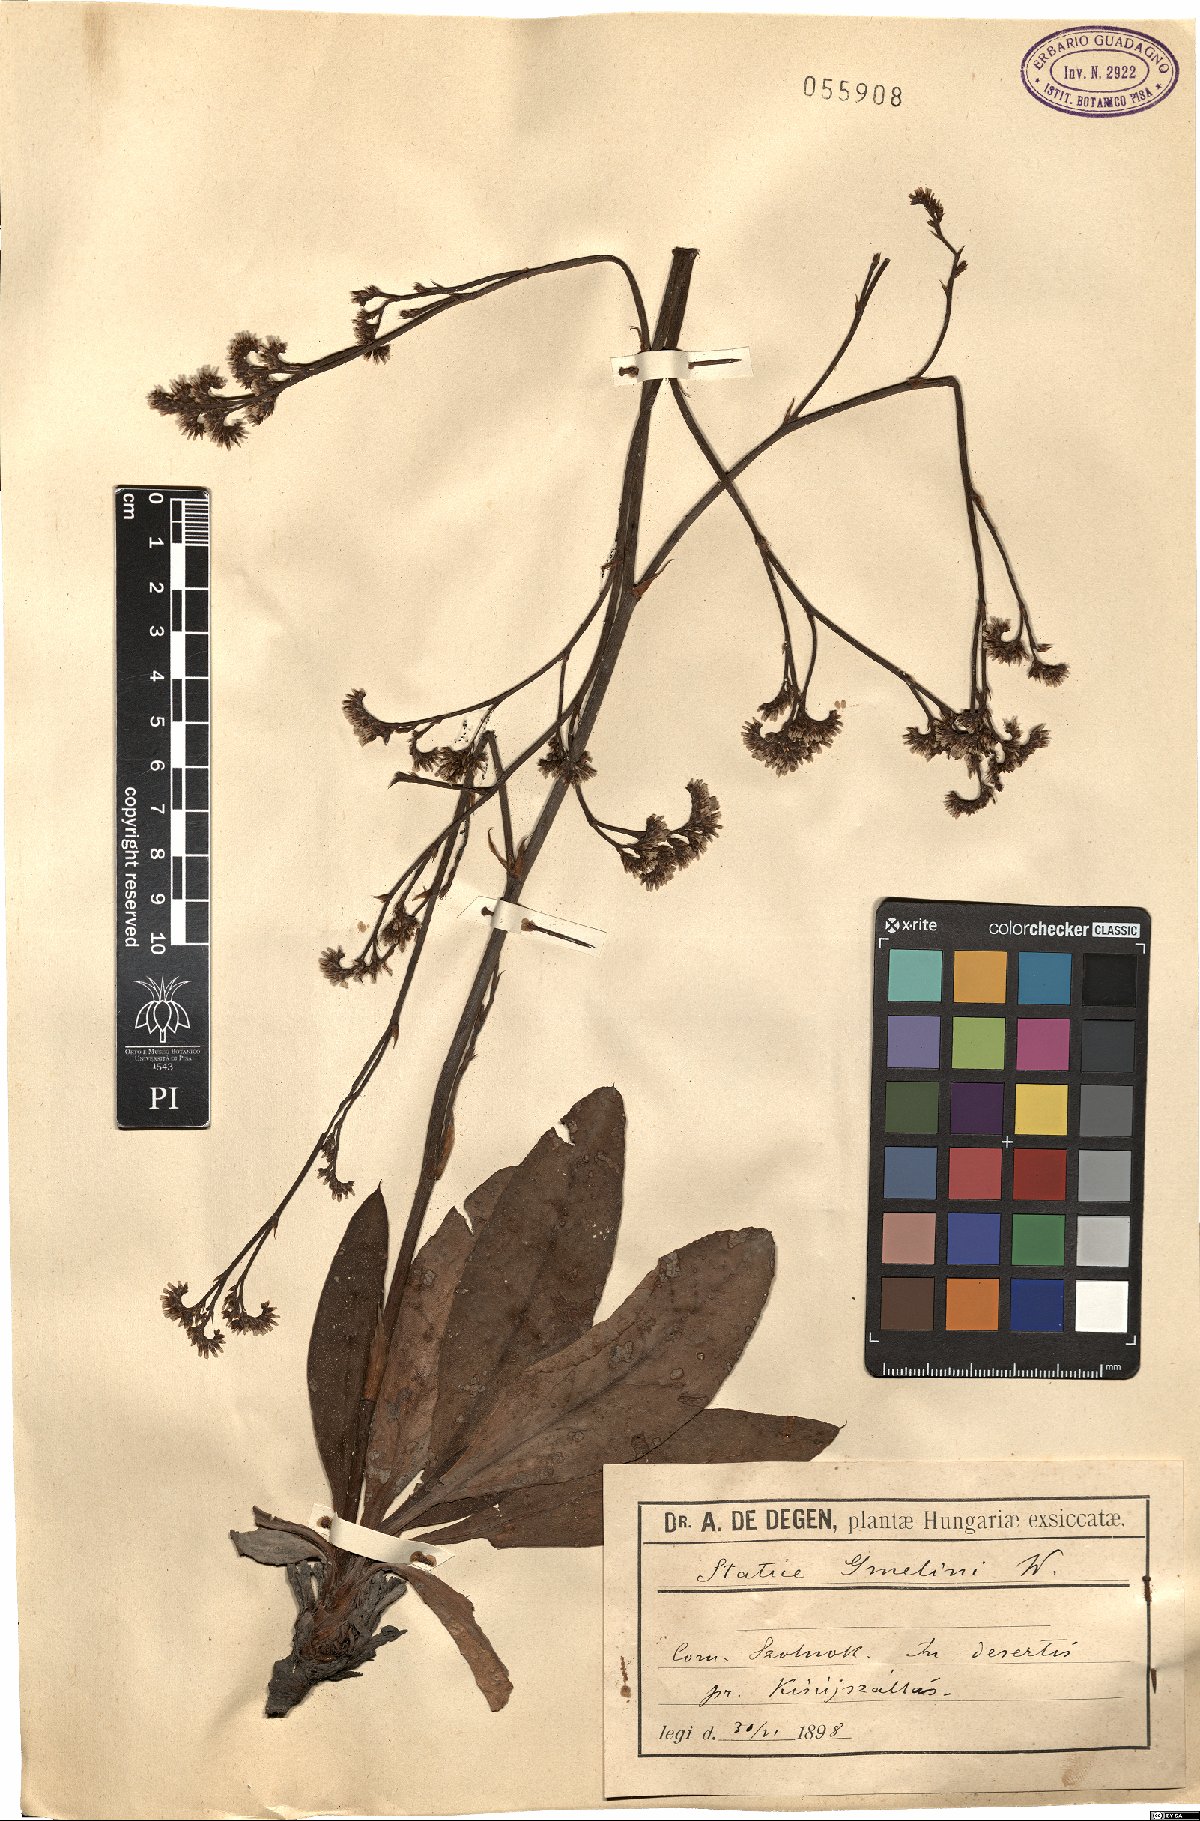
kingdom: Plantae
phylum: Tracheophyta
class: Magnoliopsida
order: Caryophyllales
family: Plumbaginaceae
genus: Limonium
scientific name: Limonium gmelini
